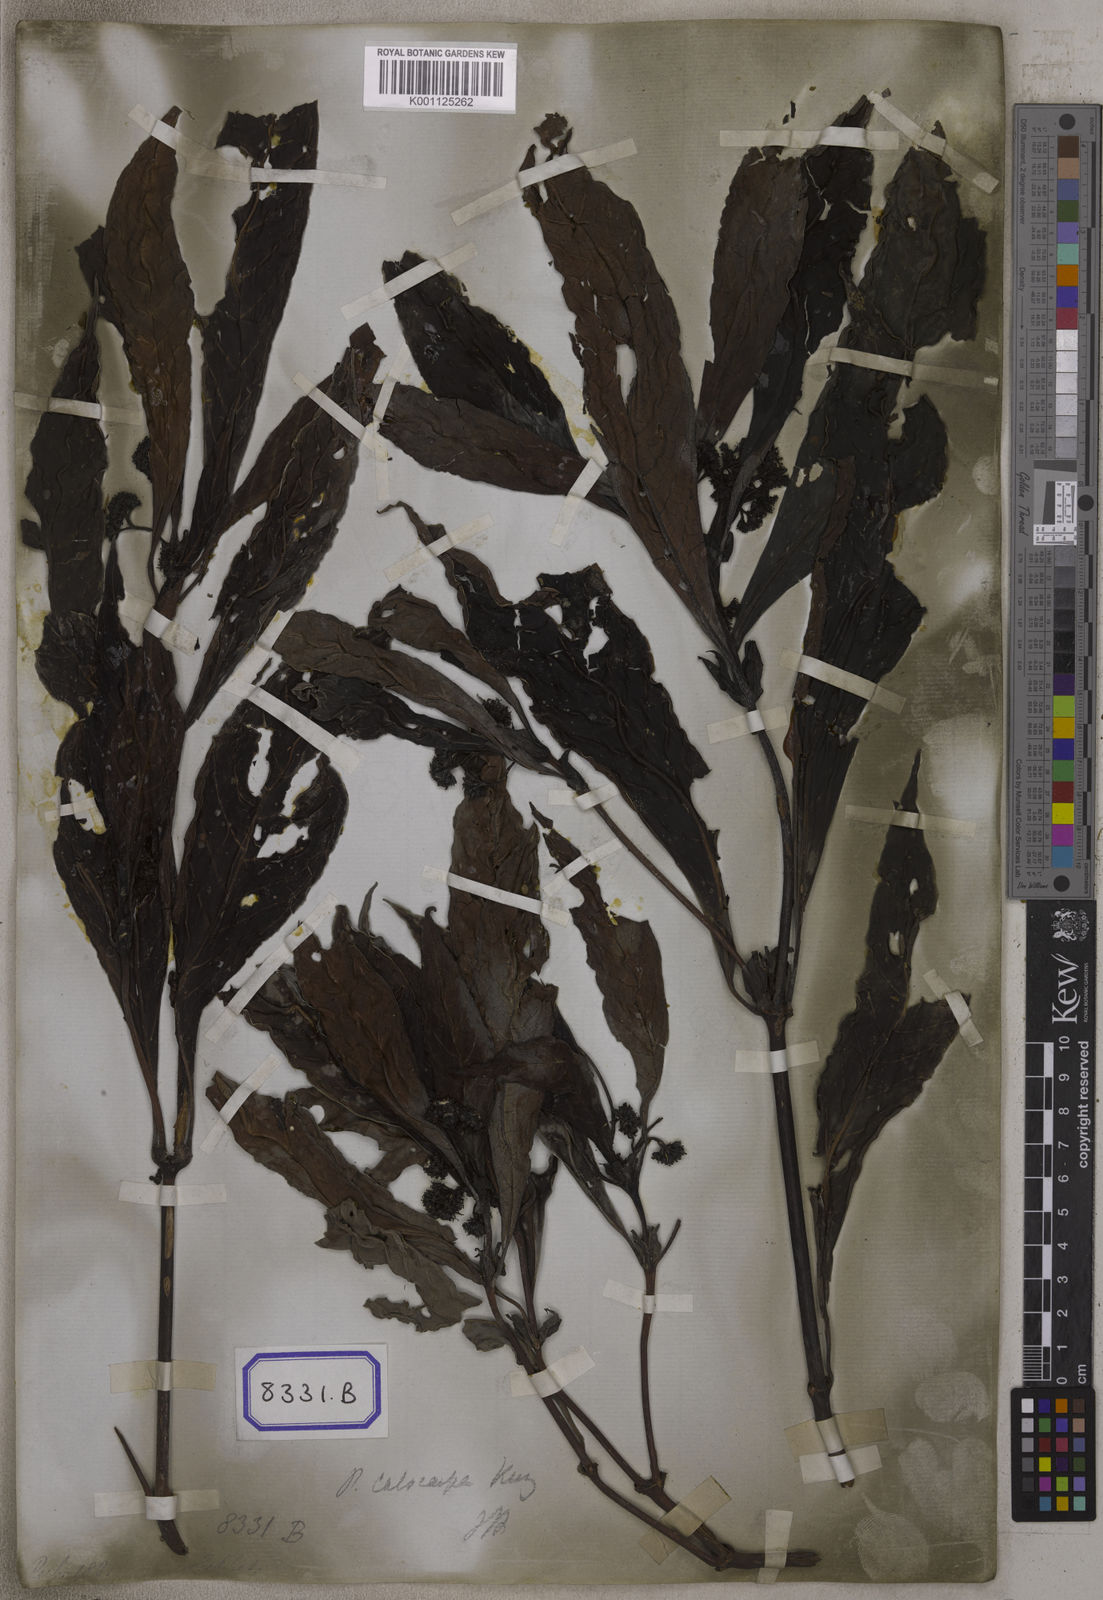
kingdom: Plantae
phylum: Tracheophyta
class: Magnoliopsida
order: Gentianales
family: Rubiaceae
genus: Psychotria
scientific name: Psychotria asiatica
